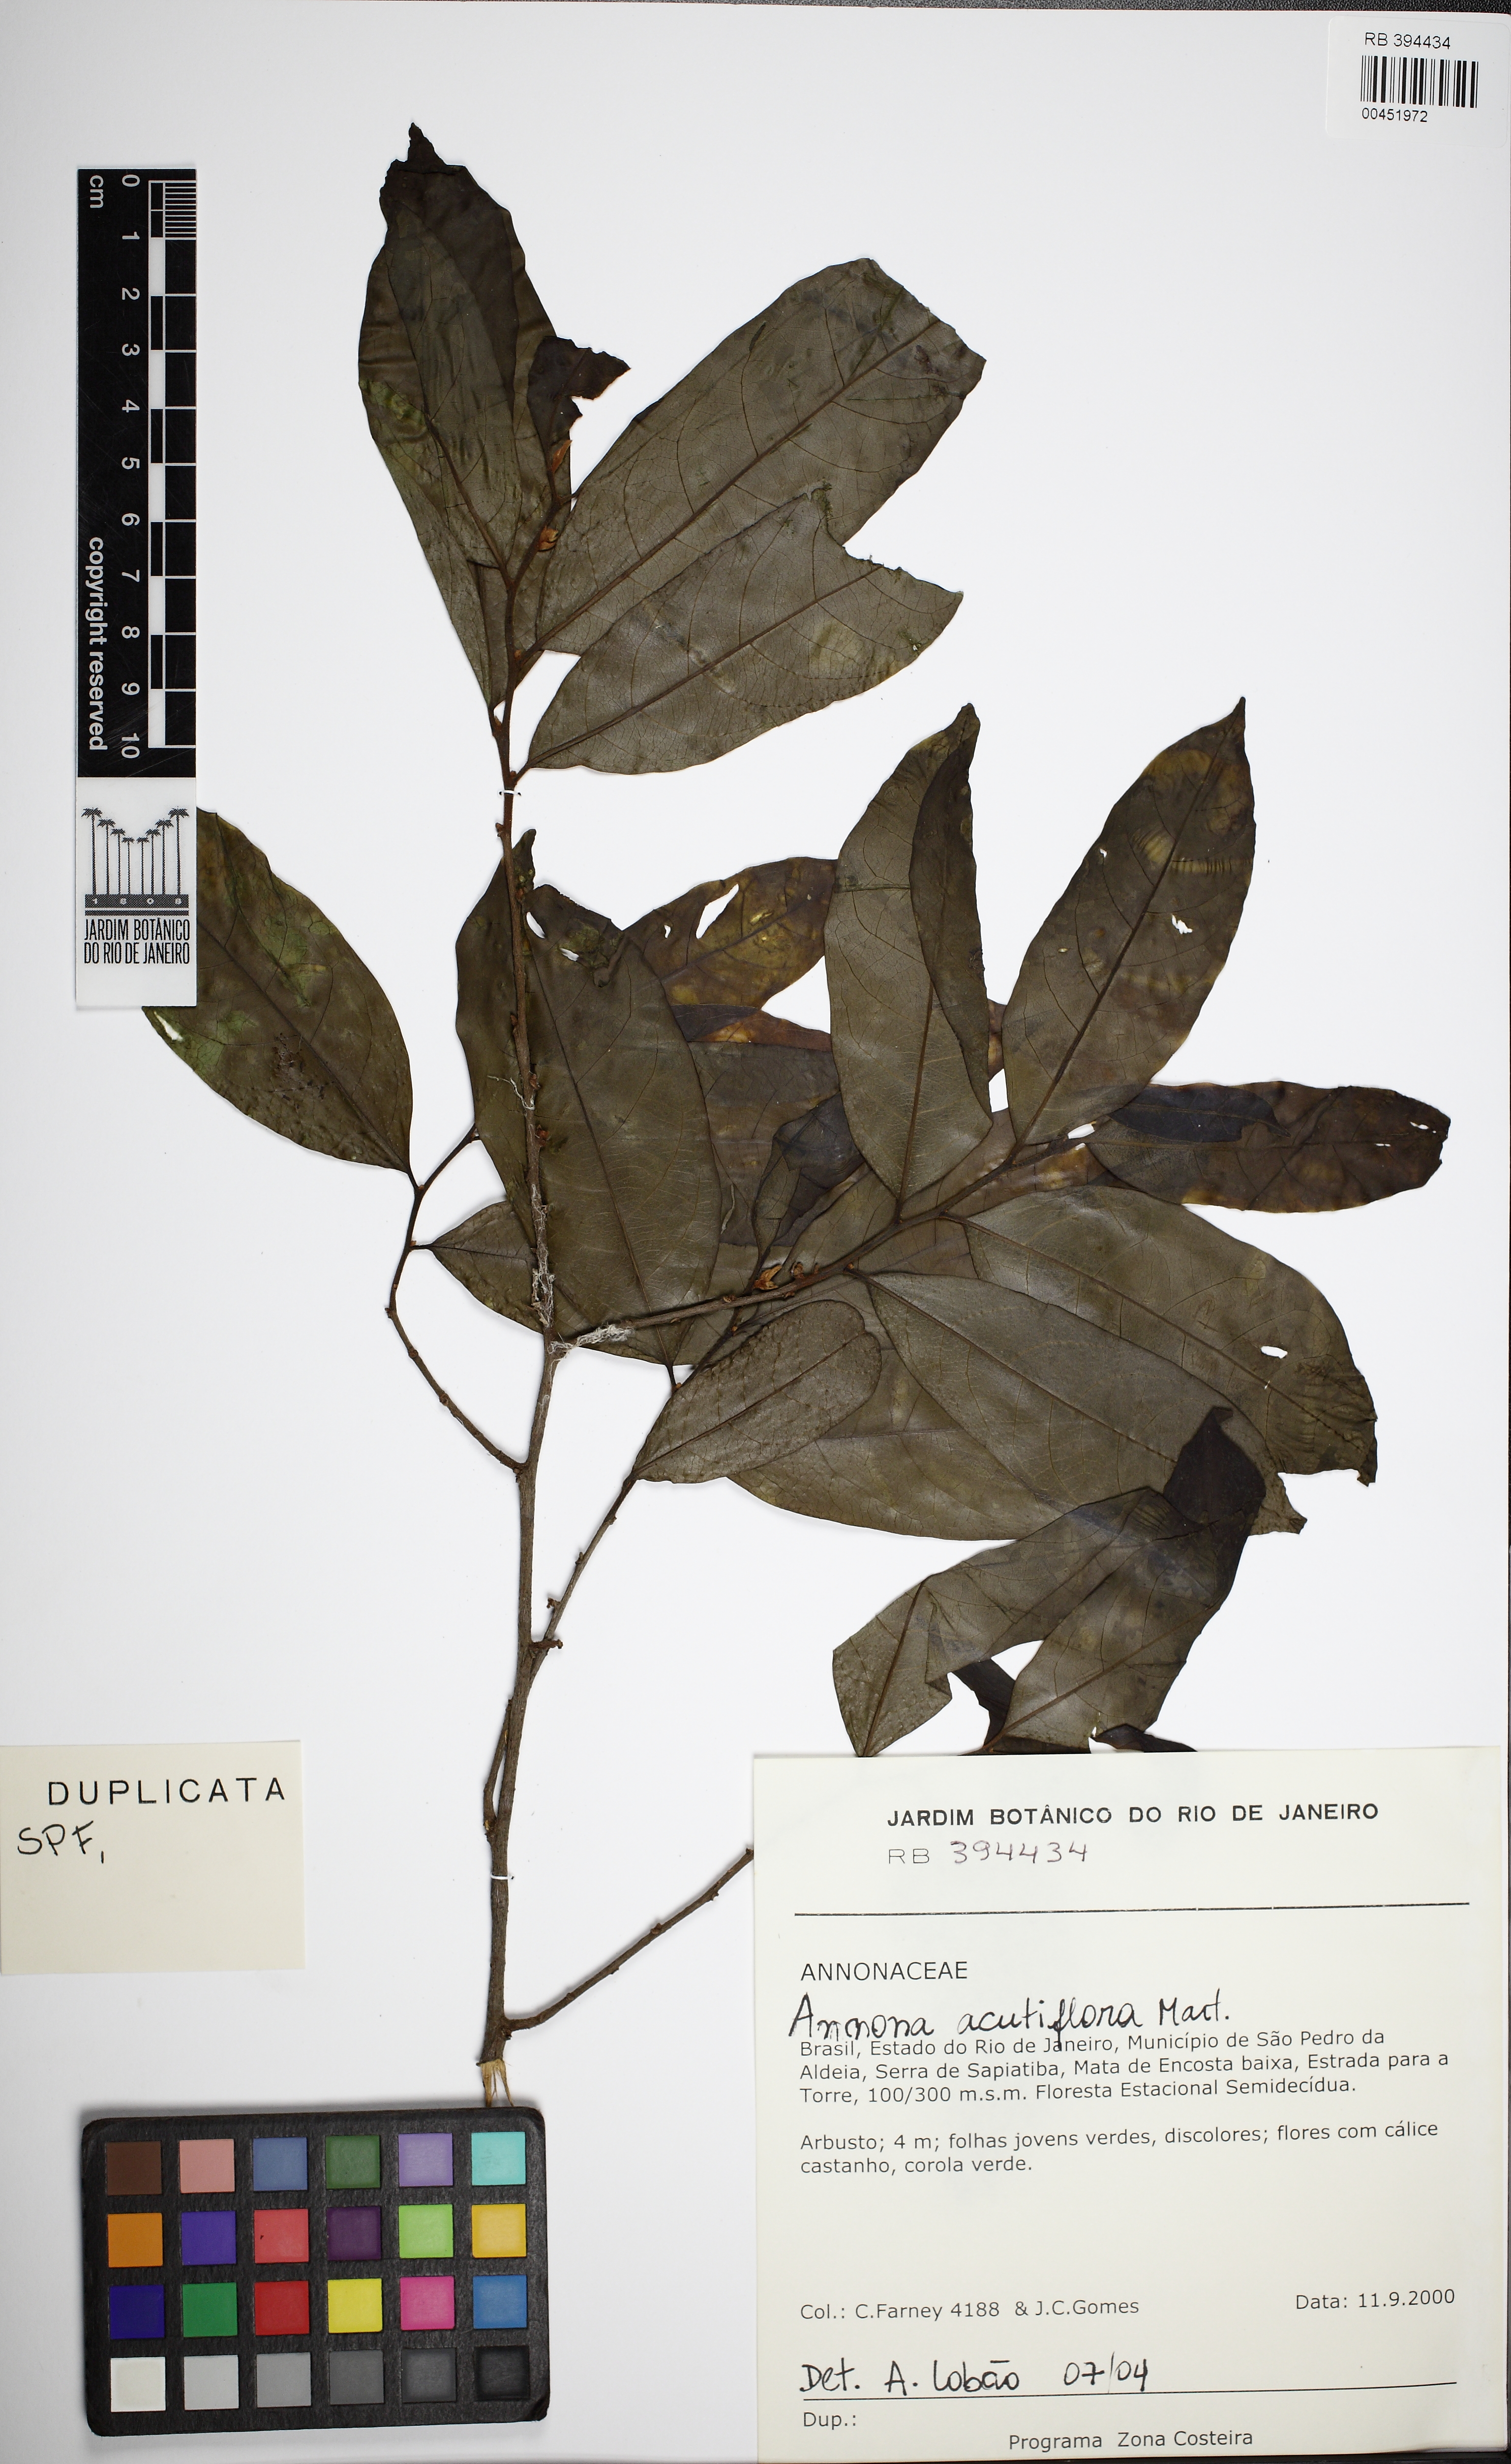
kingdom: Plantae
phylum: Tracheophyta
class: Magnoliopsida
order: Magnoliales
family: Annonaceae
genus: Annona
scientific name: Annona acutiflora
